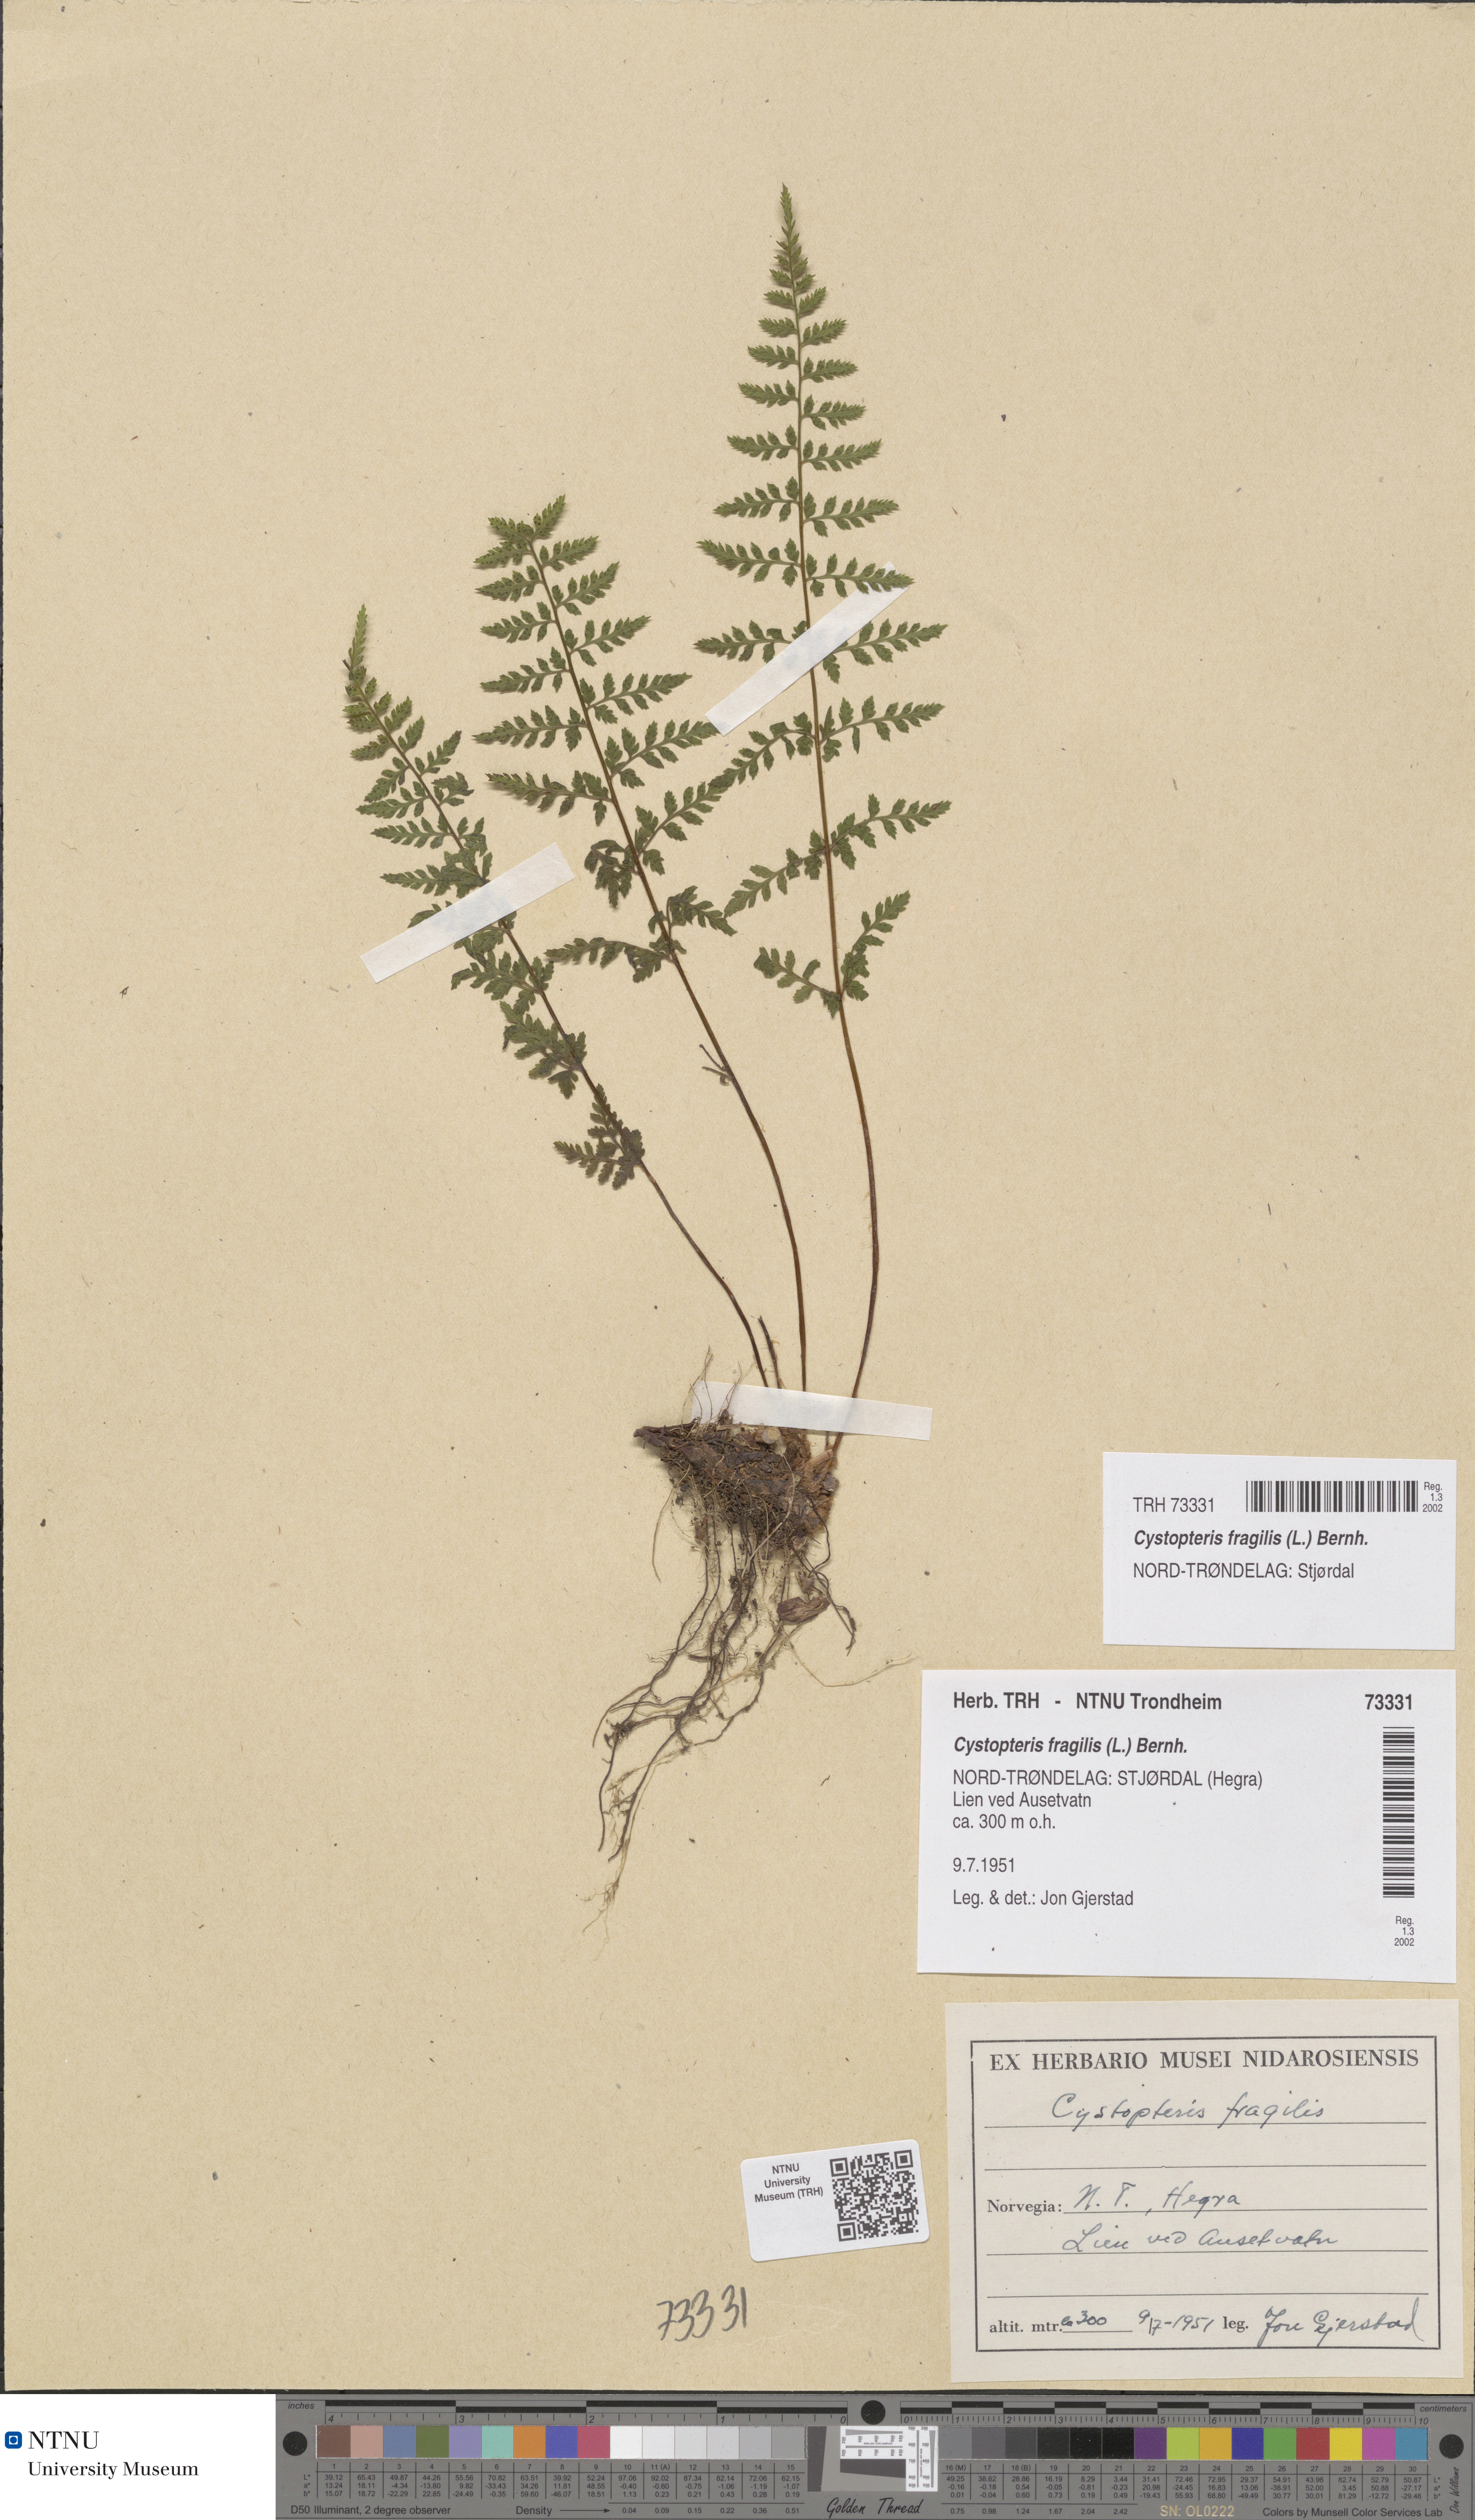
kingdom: Plantae
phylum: Tracheophyta
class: Polypodiopsida
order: Polypodiales
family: Cystopteridaceae
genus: Cystopteris
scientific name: Cystopteris fragilis
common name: Brittle bladder fern
